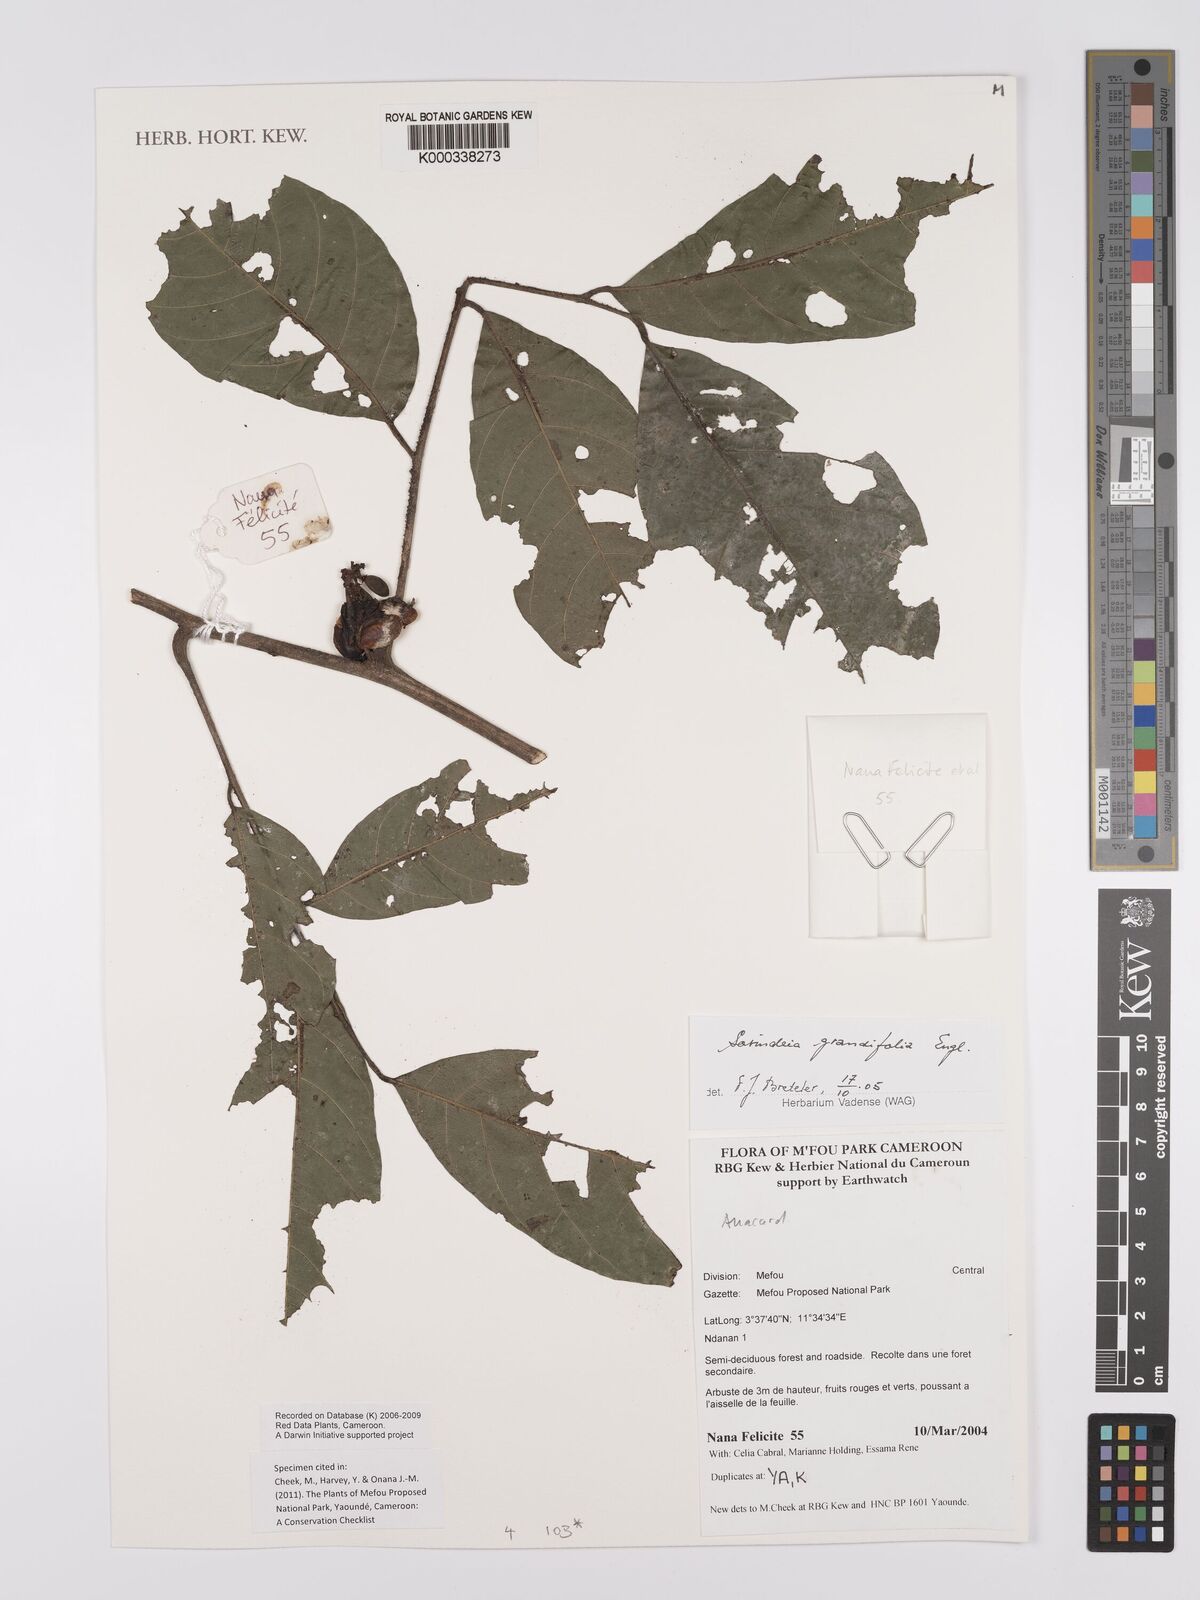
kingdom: Plantae
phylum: Tracheophyta
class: Magnoliopsida
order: Sapindales
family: Anacardiaceae
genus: Sorindeia
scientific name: Sorindeia grandifolia
